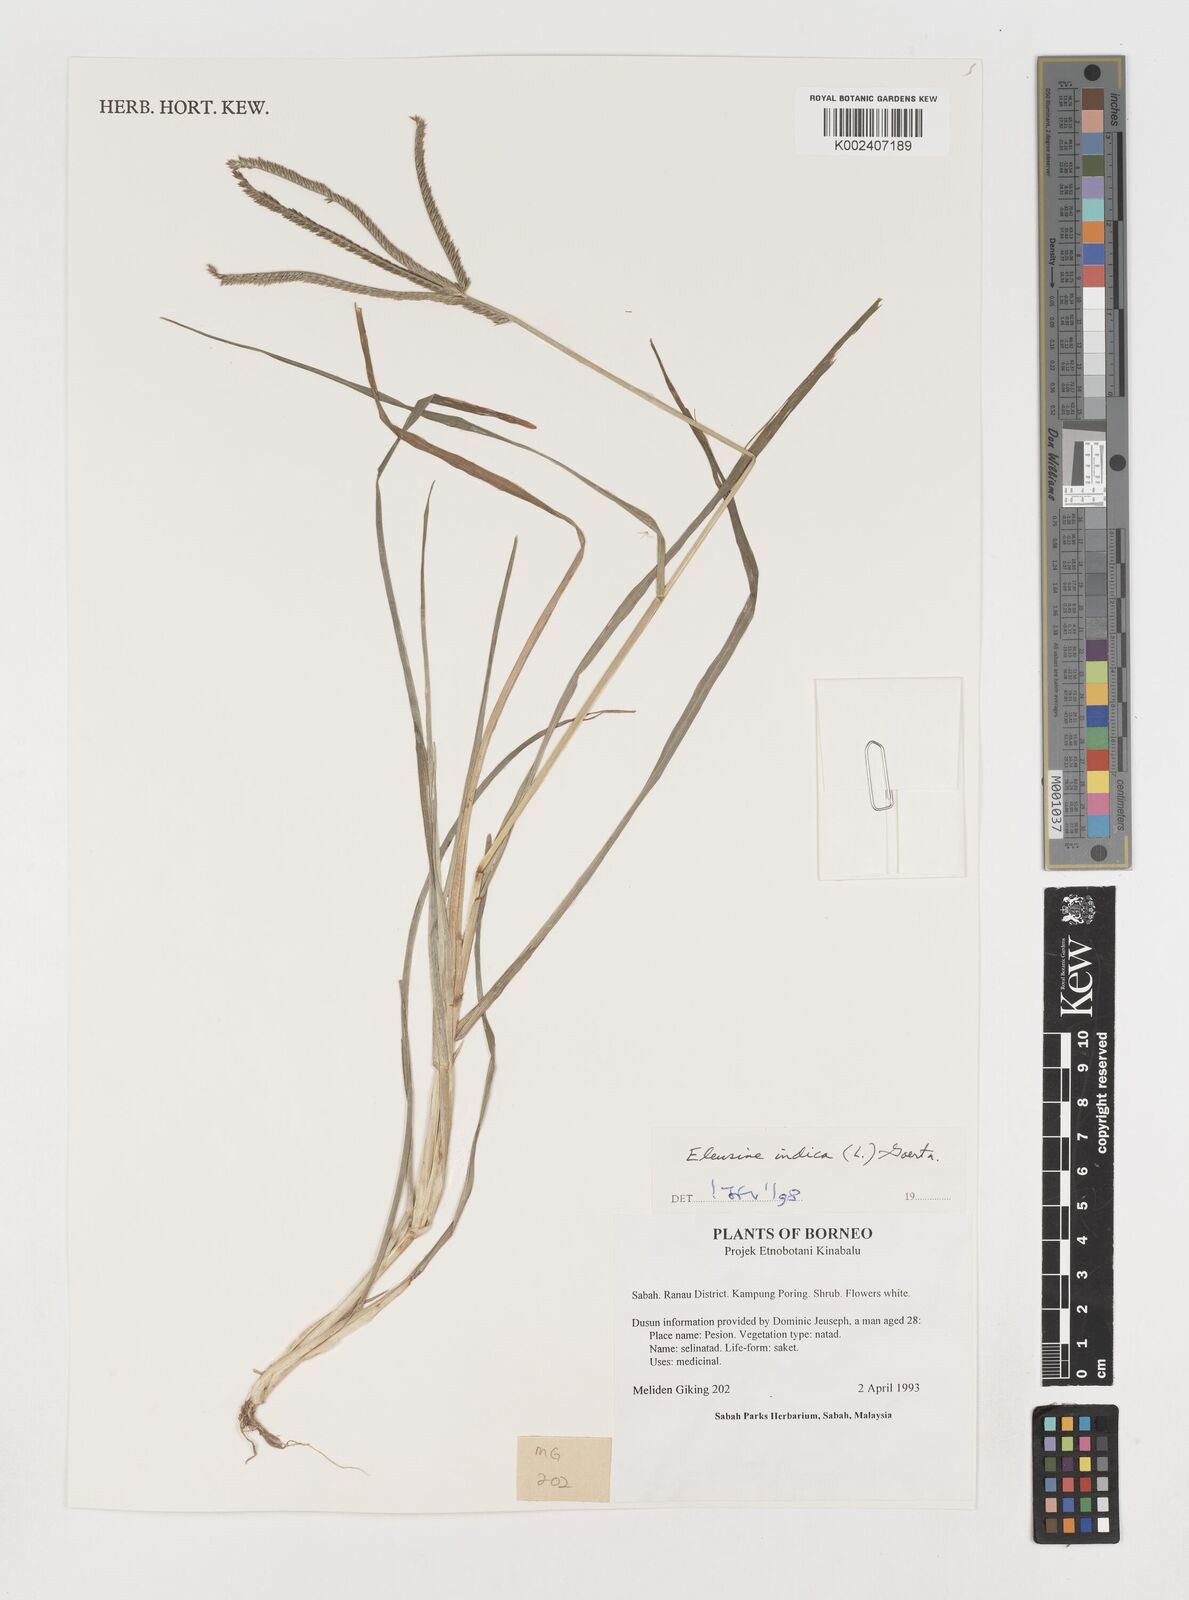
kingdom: Plantae
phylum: Tracheophyta
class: Liliopsida
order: Poales
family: Poaceae
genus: Eleusine
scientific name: Eleusine indica
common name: Yard-grass
